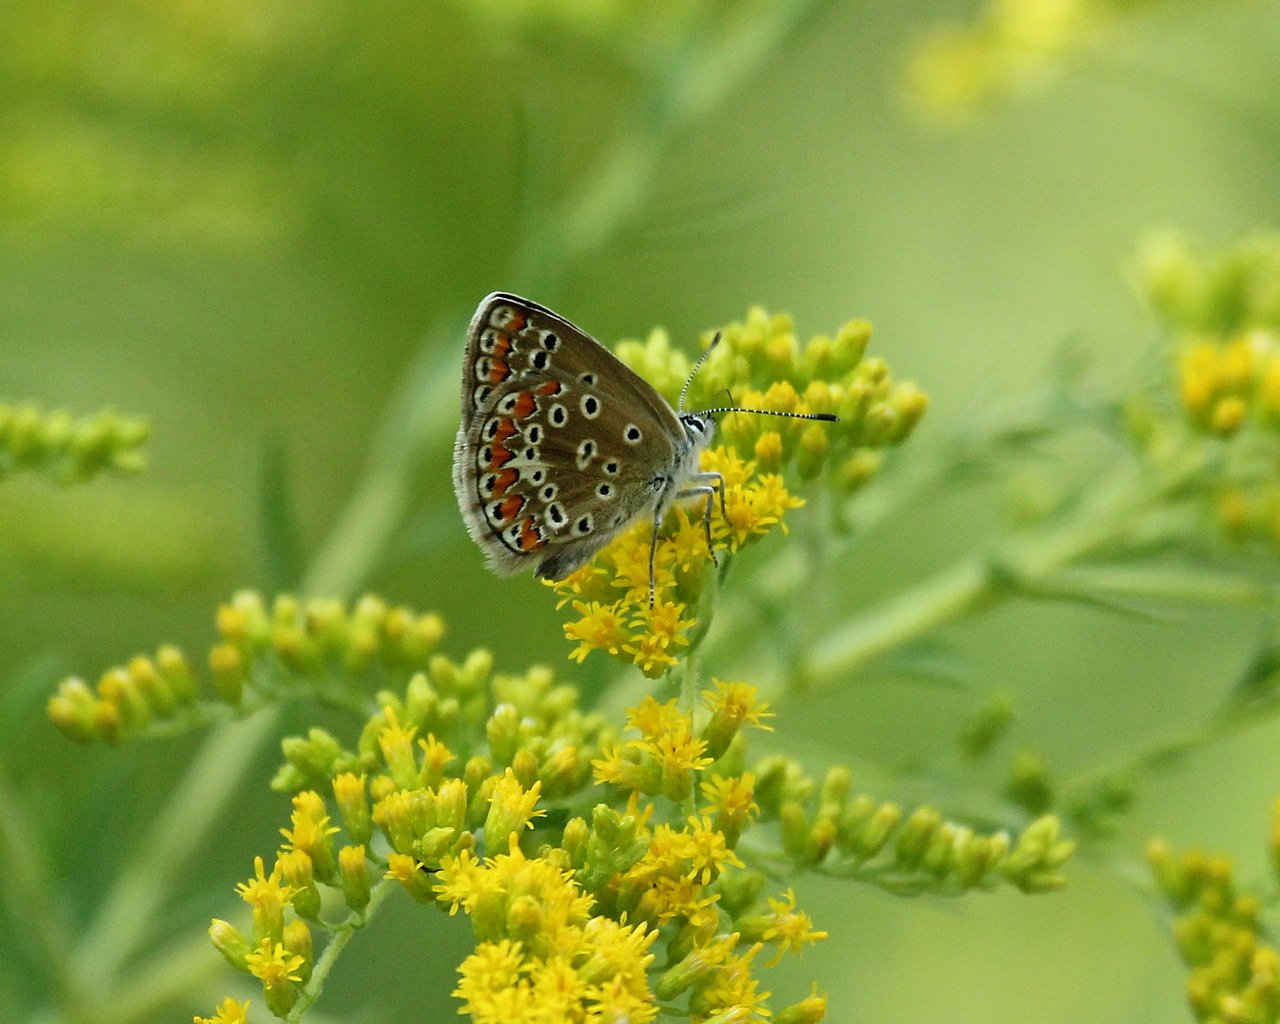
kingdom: Animalia
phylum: Arthropoda
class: Insecta
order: Lepidoptera
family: Lycaenidae
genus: Polyommatus
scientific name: Polyommatus icarus
